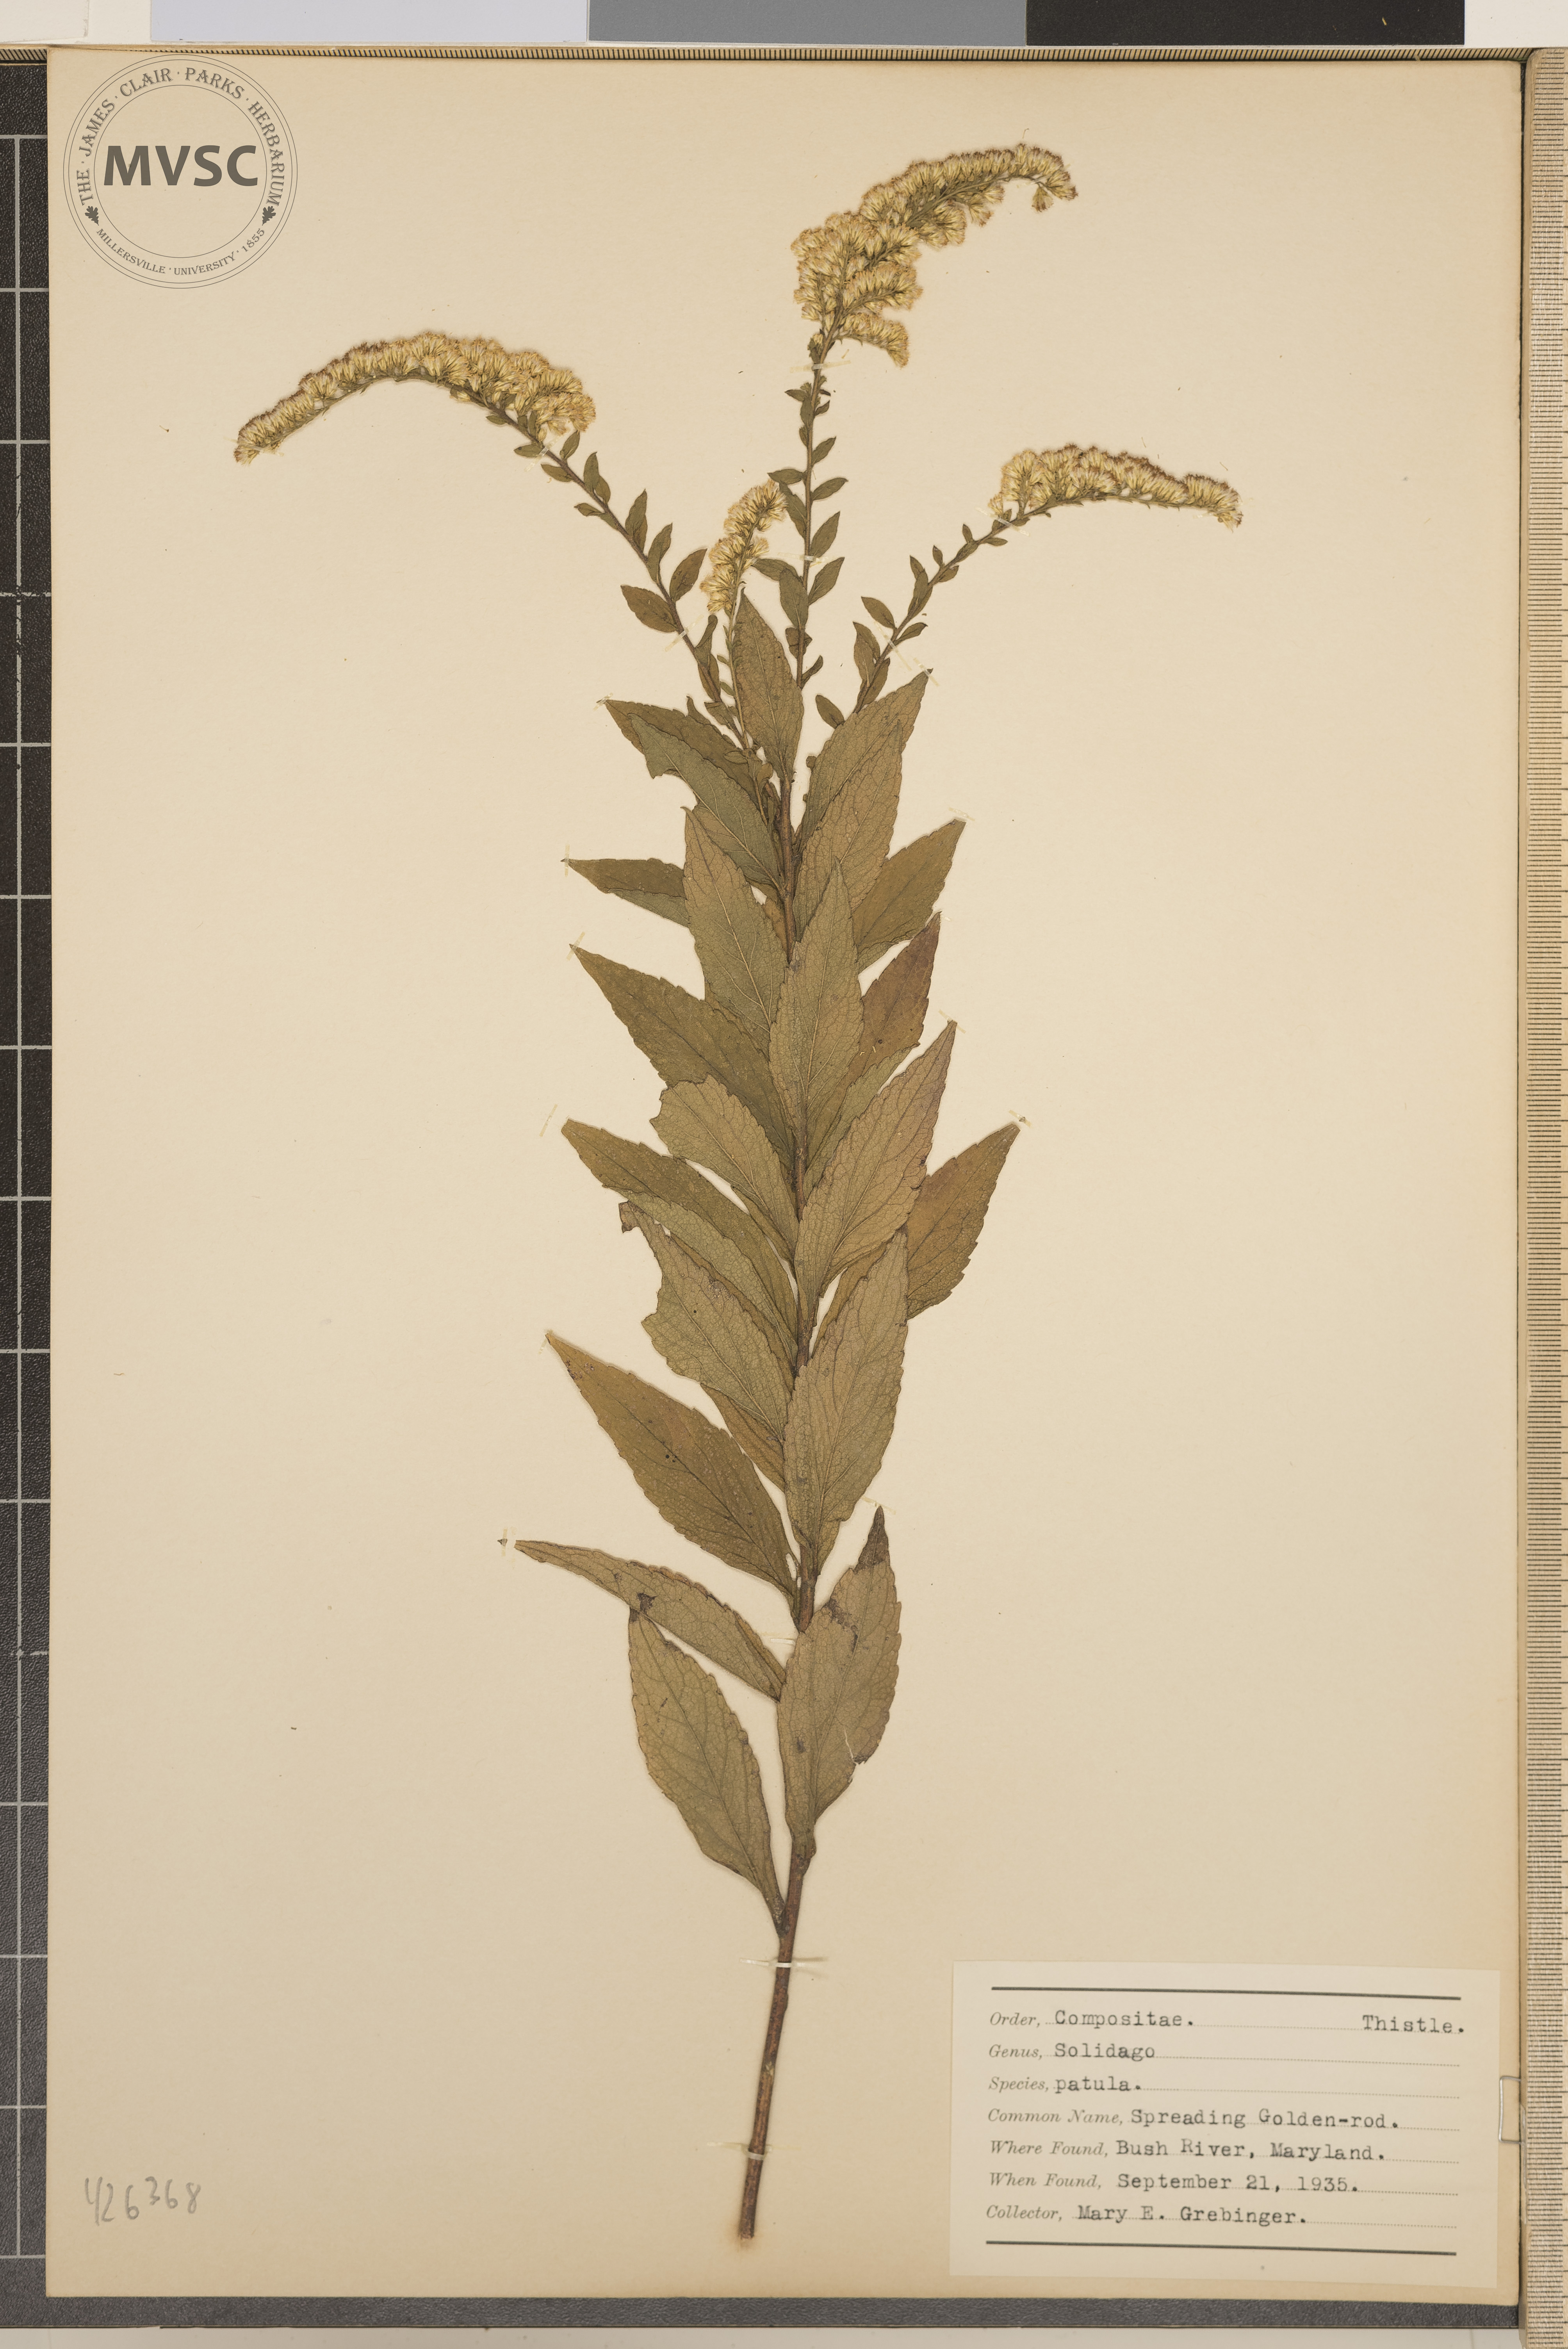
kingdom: Plantae
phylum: Tracheophyta
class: Magnoliopsida
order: Asterales
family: Asteraceae
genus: Solidago
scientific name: Solidago patula
